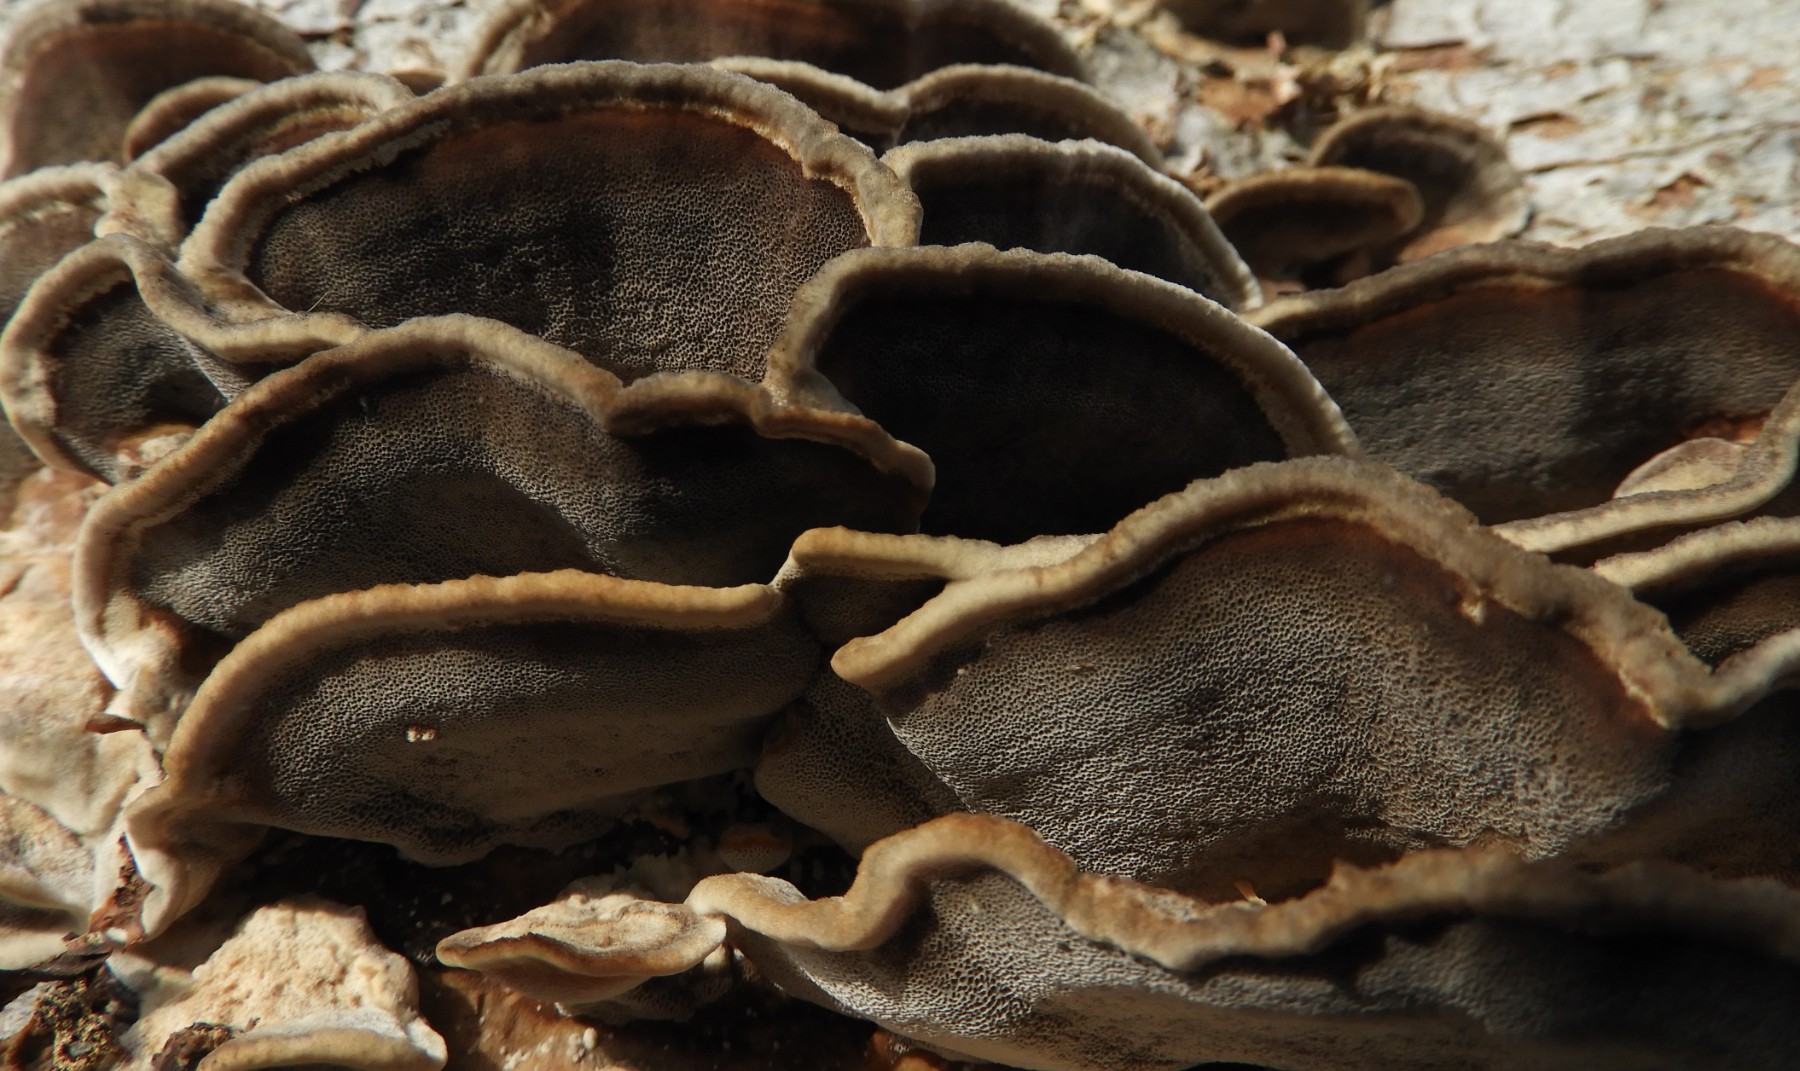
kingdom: Fungi
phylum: Basidiomycota
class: Agaricomycetes
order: Polyporales
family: Phanerochaetaceae
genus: Bjerkandera
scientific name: Bjerkandera adusta
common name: sveden sodporesvamp
